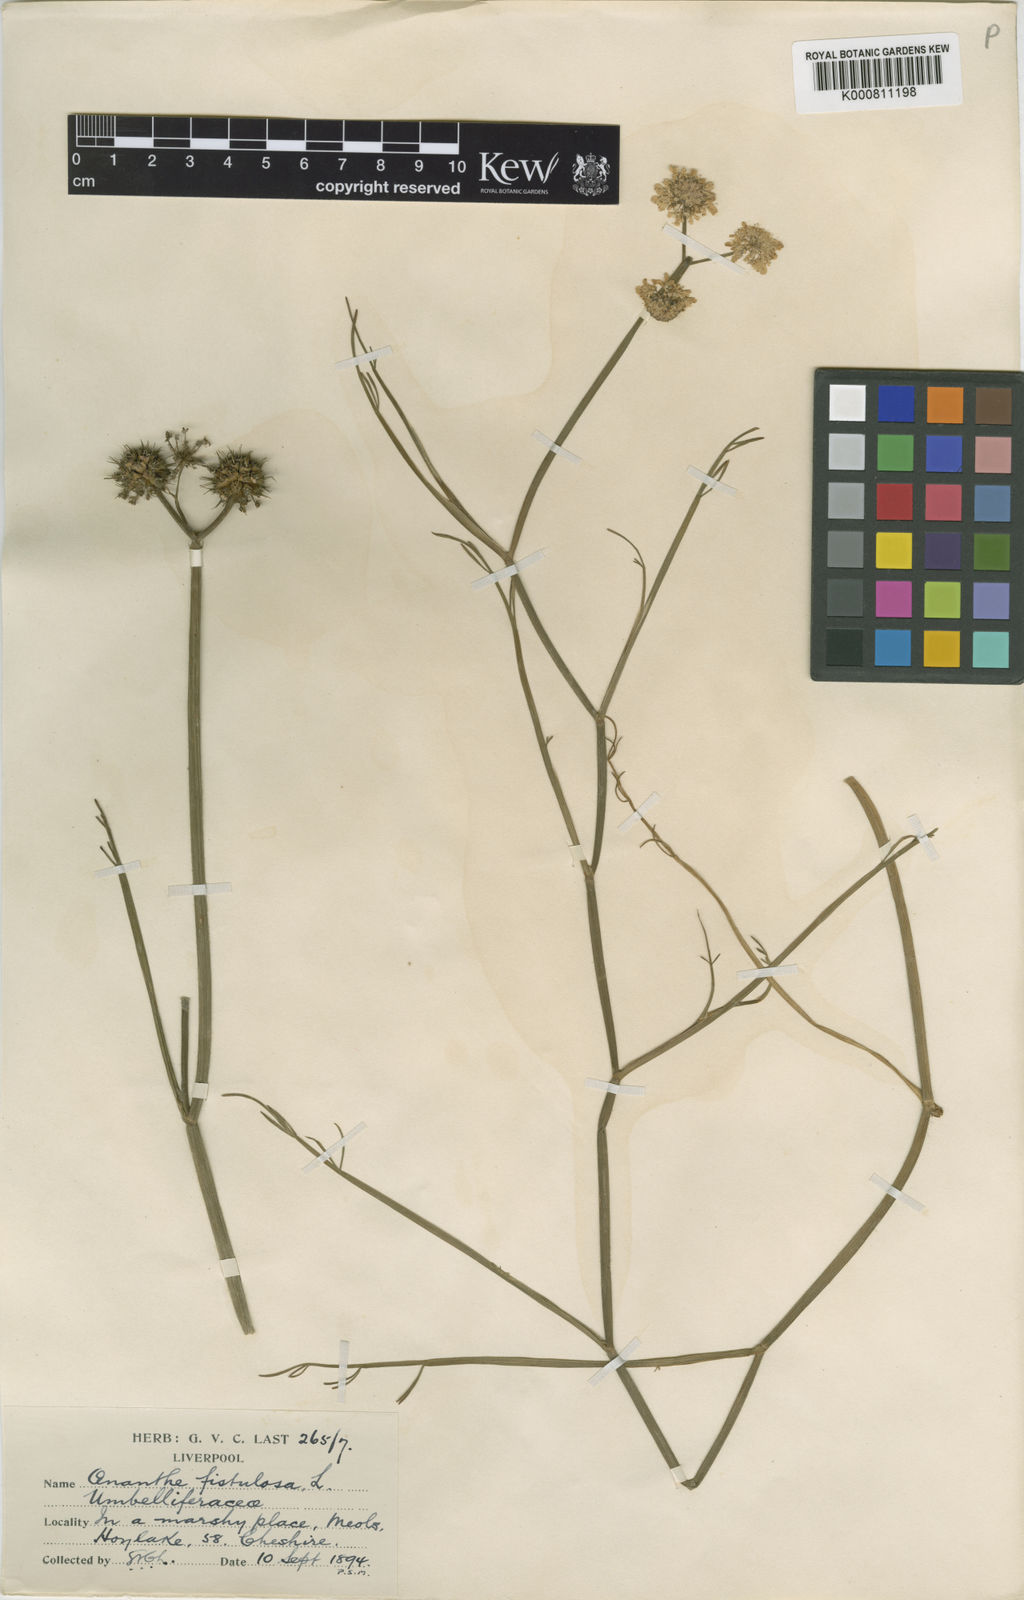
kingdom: Plantae
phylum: Tracheophyta
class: Magnoliopsida
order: Apiales
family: Apiaceae
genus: Oenanthe
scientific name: Oenanthe fistulosa
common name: Tubular water-dropwort
